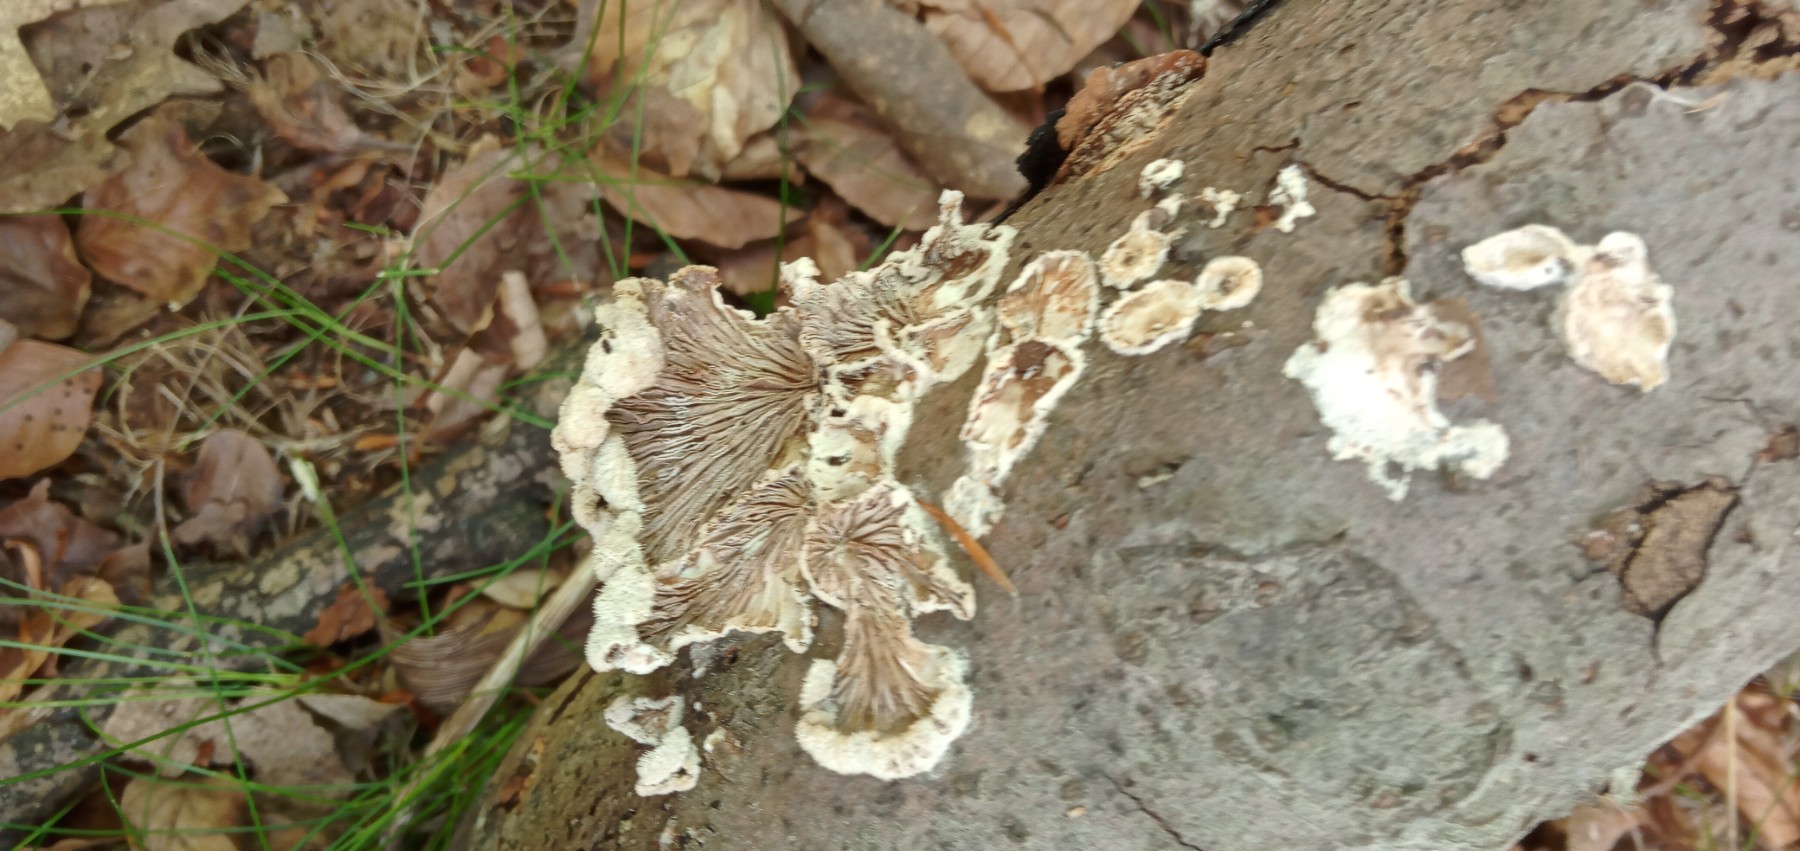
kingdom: Fungi
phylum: Basidiomycota
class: Agaricomycetes
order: Agaricales
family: Schizophyllaceae
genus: Schizophyllum
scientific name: Schizophyllum commune
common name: kløvblad
